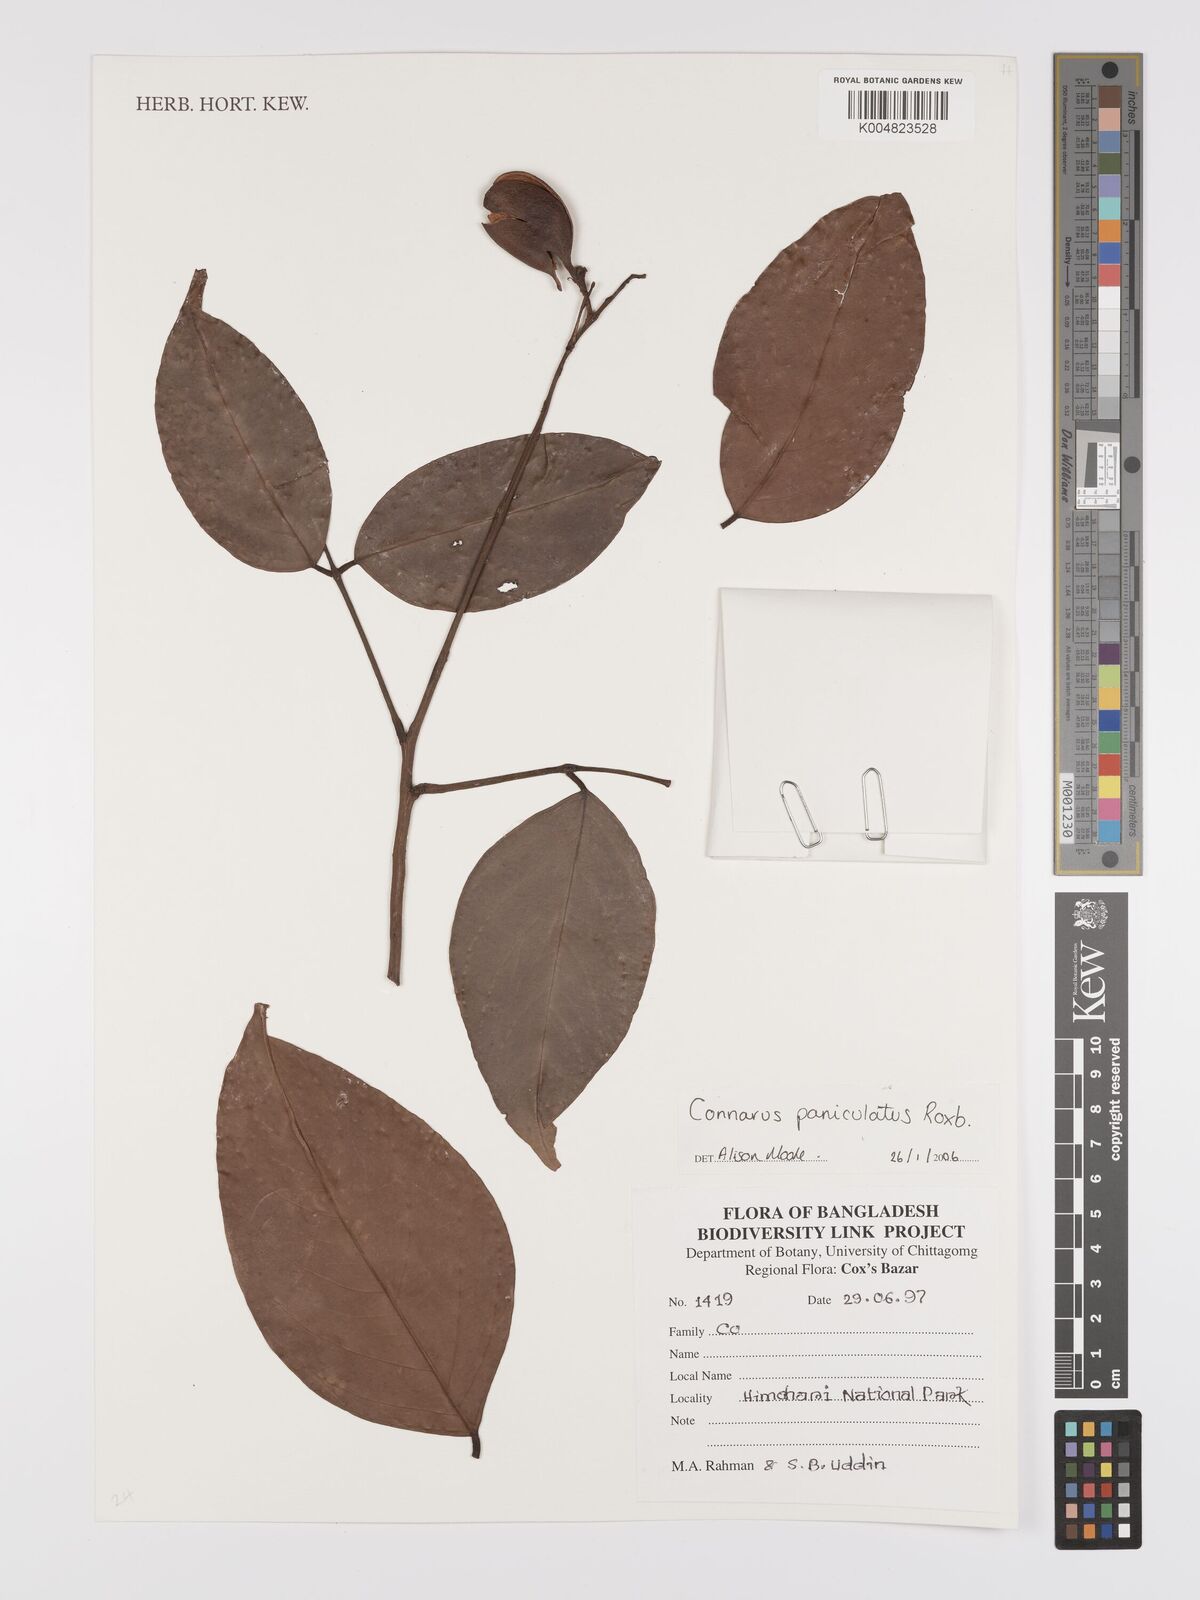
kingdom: Plantae
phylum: Tracheophyta
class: Magnoliopsida
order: Oxalidales
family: Connaraceae
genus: Connarus
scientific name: Connarus paniculatus
